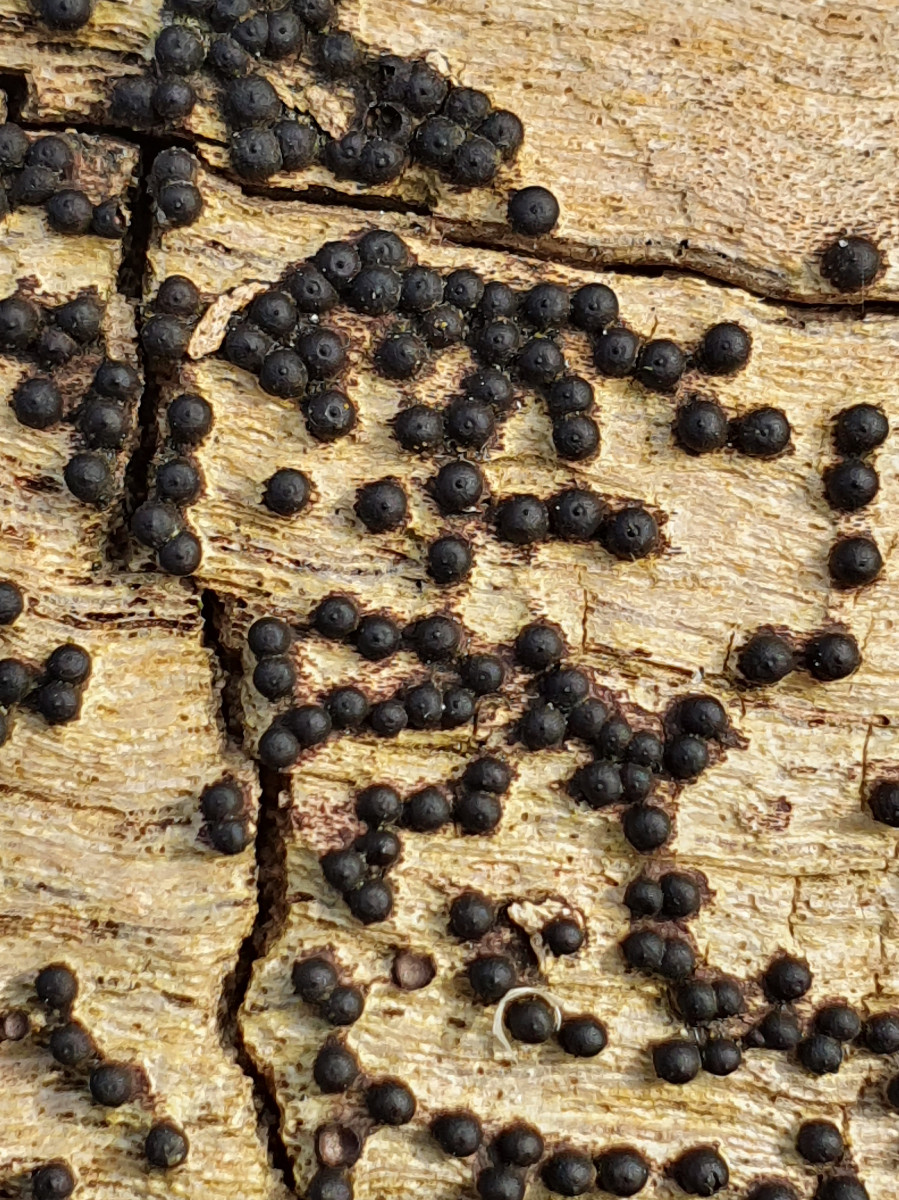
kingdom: Fungi
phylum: Ascomycota
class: Sordariomycetes
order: Xylariales
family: Xylariaceae
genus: Rosellinia
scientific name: Rosellinia
